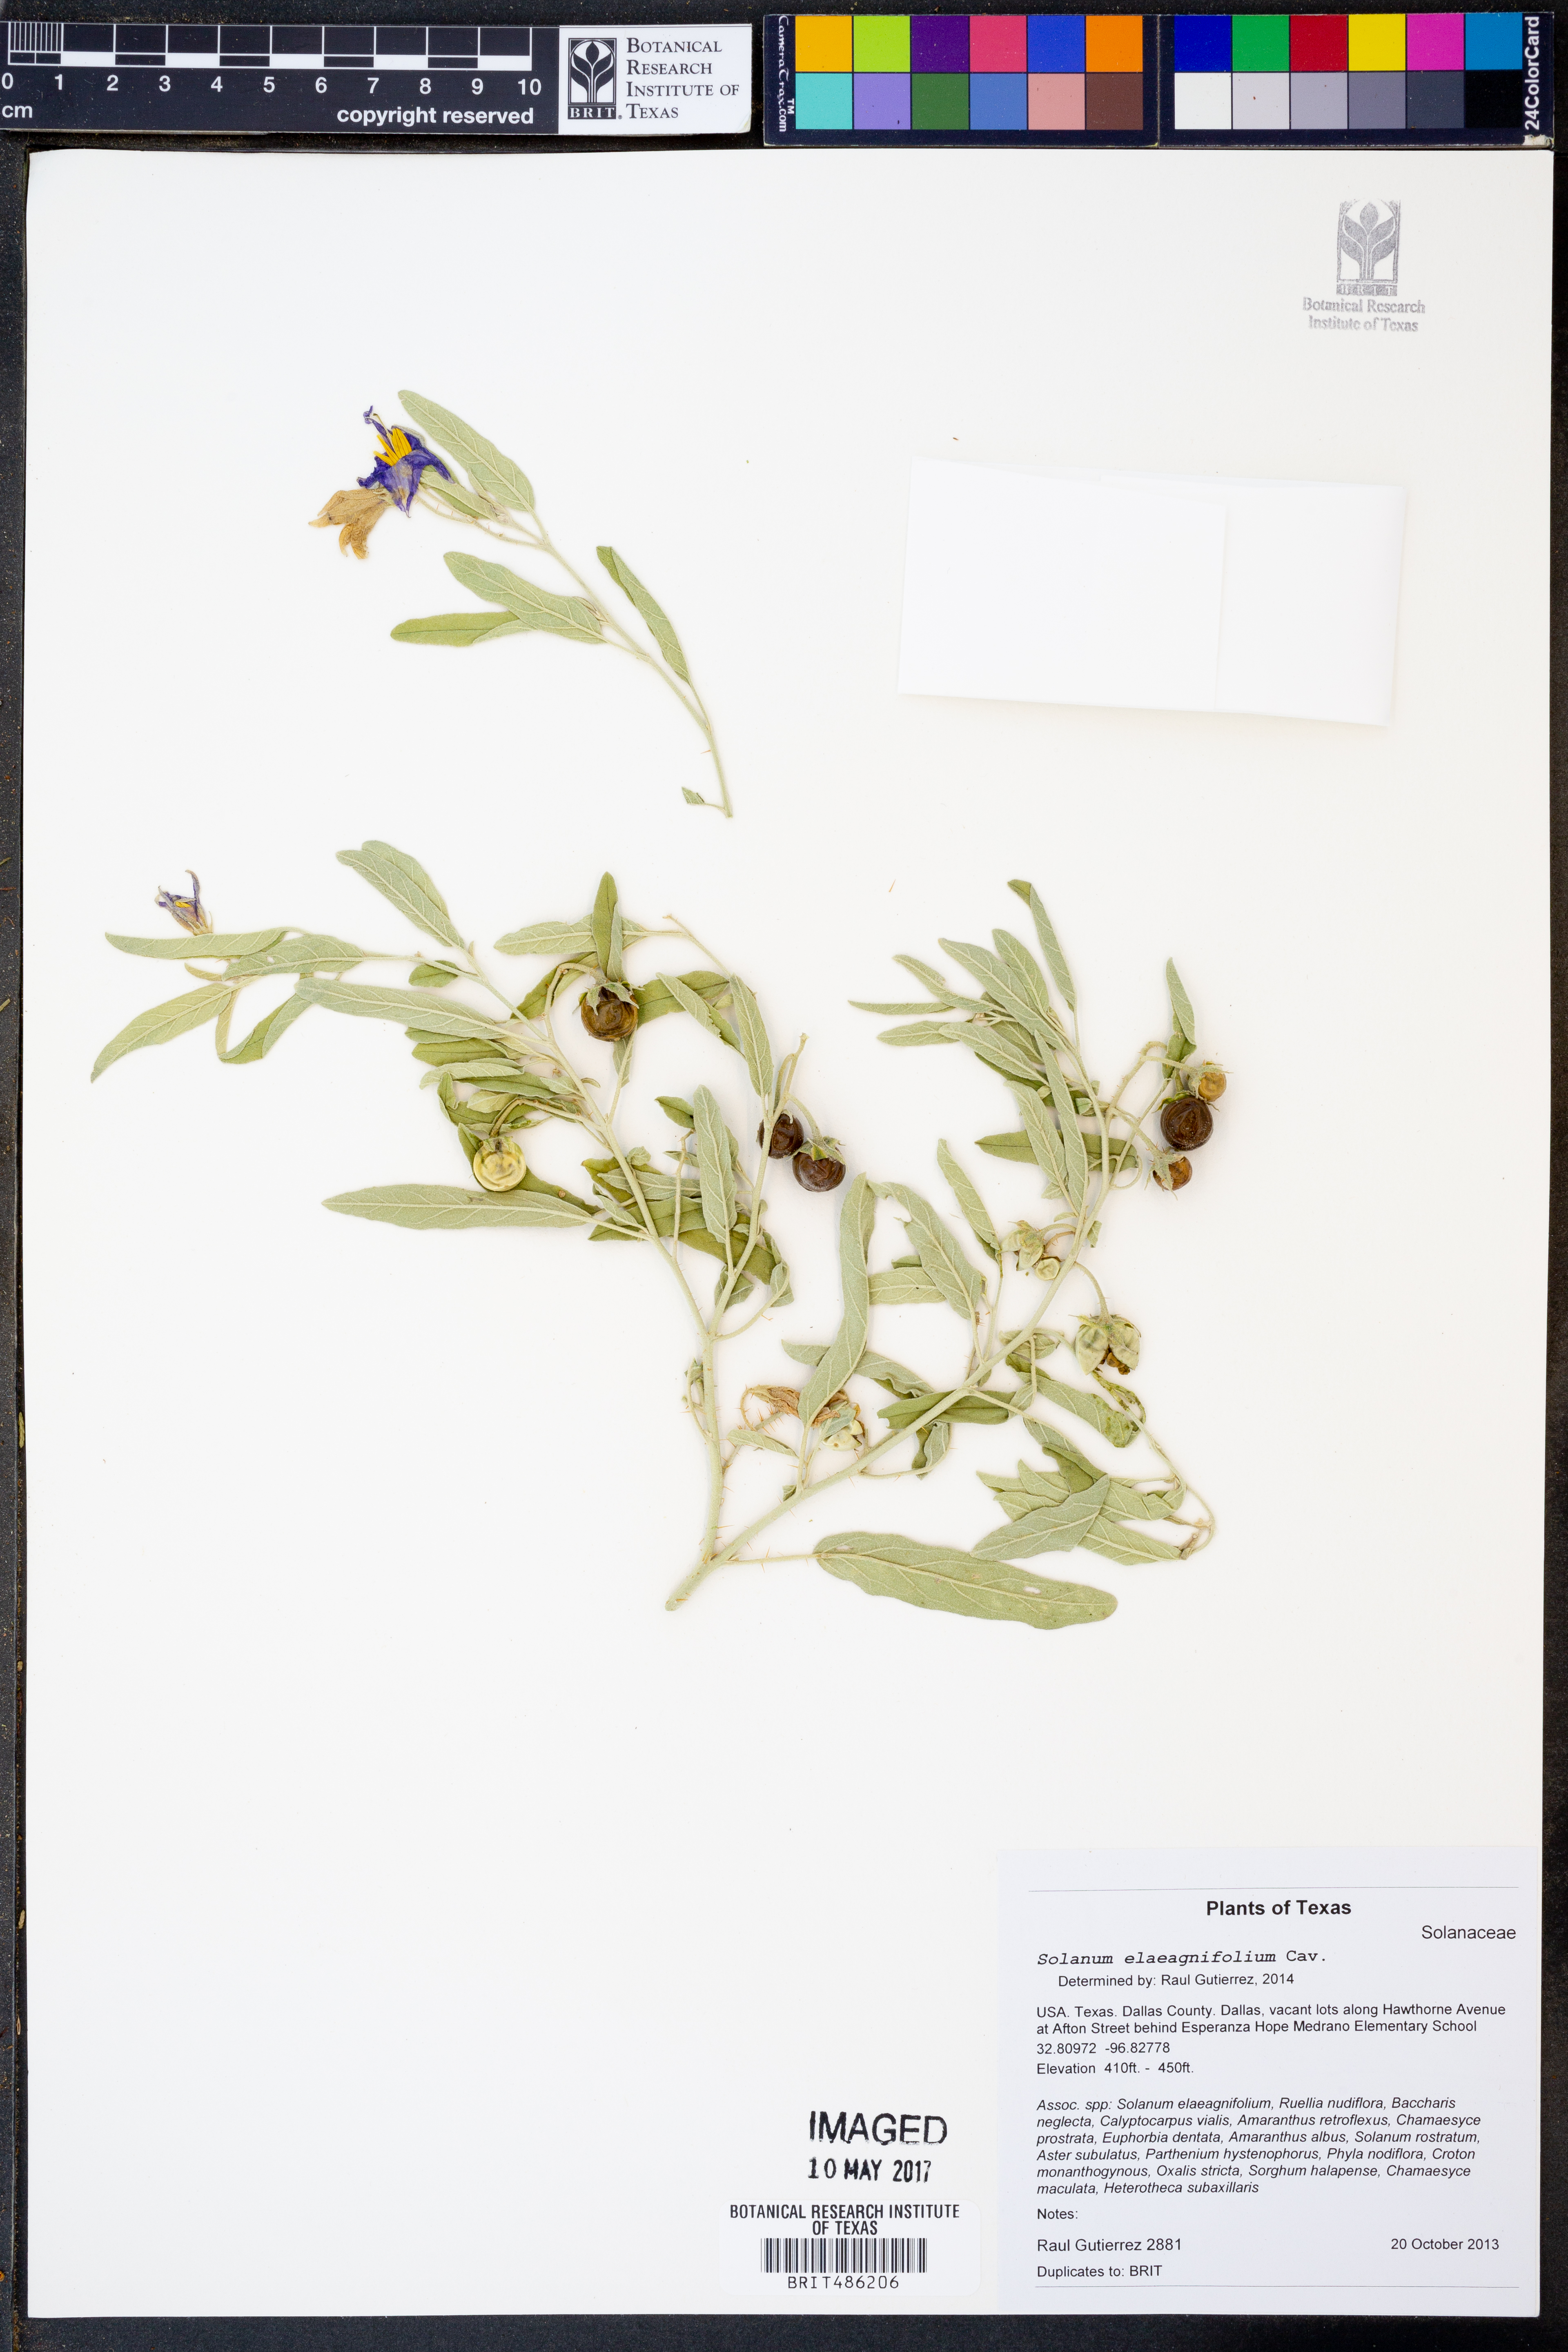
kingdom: Plantae
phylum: Tracheophyta
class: Magnoliopsida
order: Solanales
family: Solanaceae
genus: Solanum
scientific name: Solanum elaeagnifolium
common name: Silverleaf nightshade
